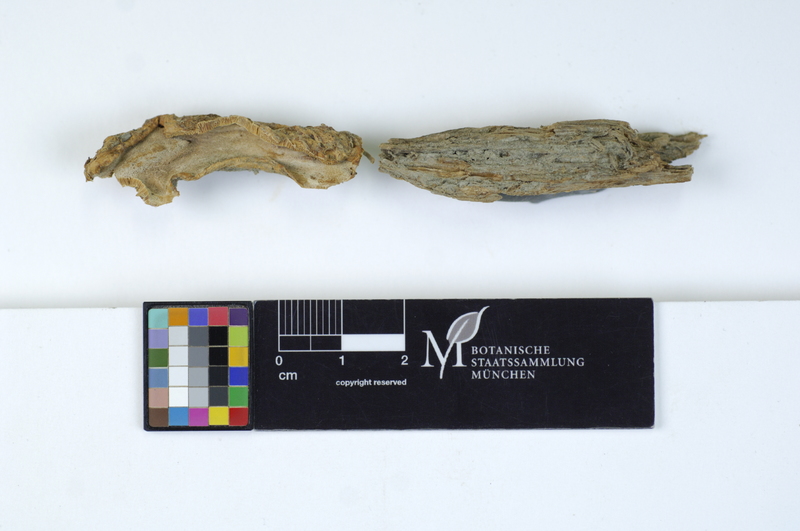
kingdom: Fungi
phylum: Basidiomycota
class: Agaricomycetes
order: Polyporales
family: Meripilaceae
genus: Rigidoporus
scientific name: Rigidoporus undatus
